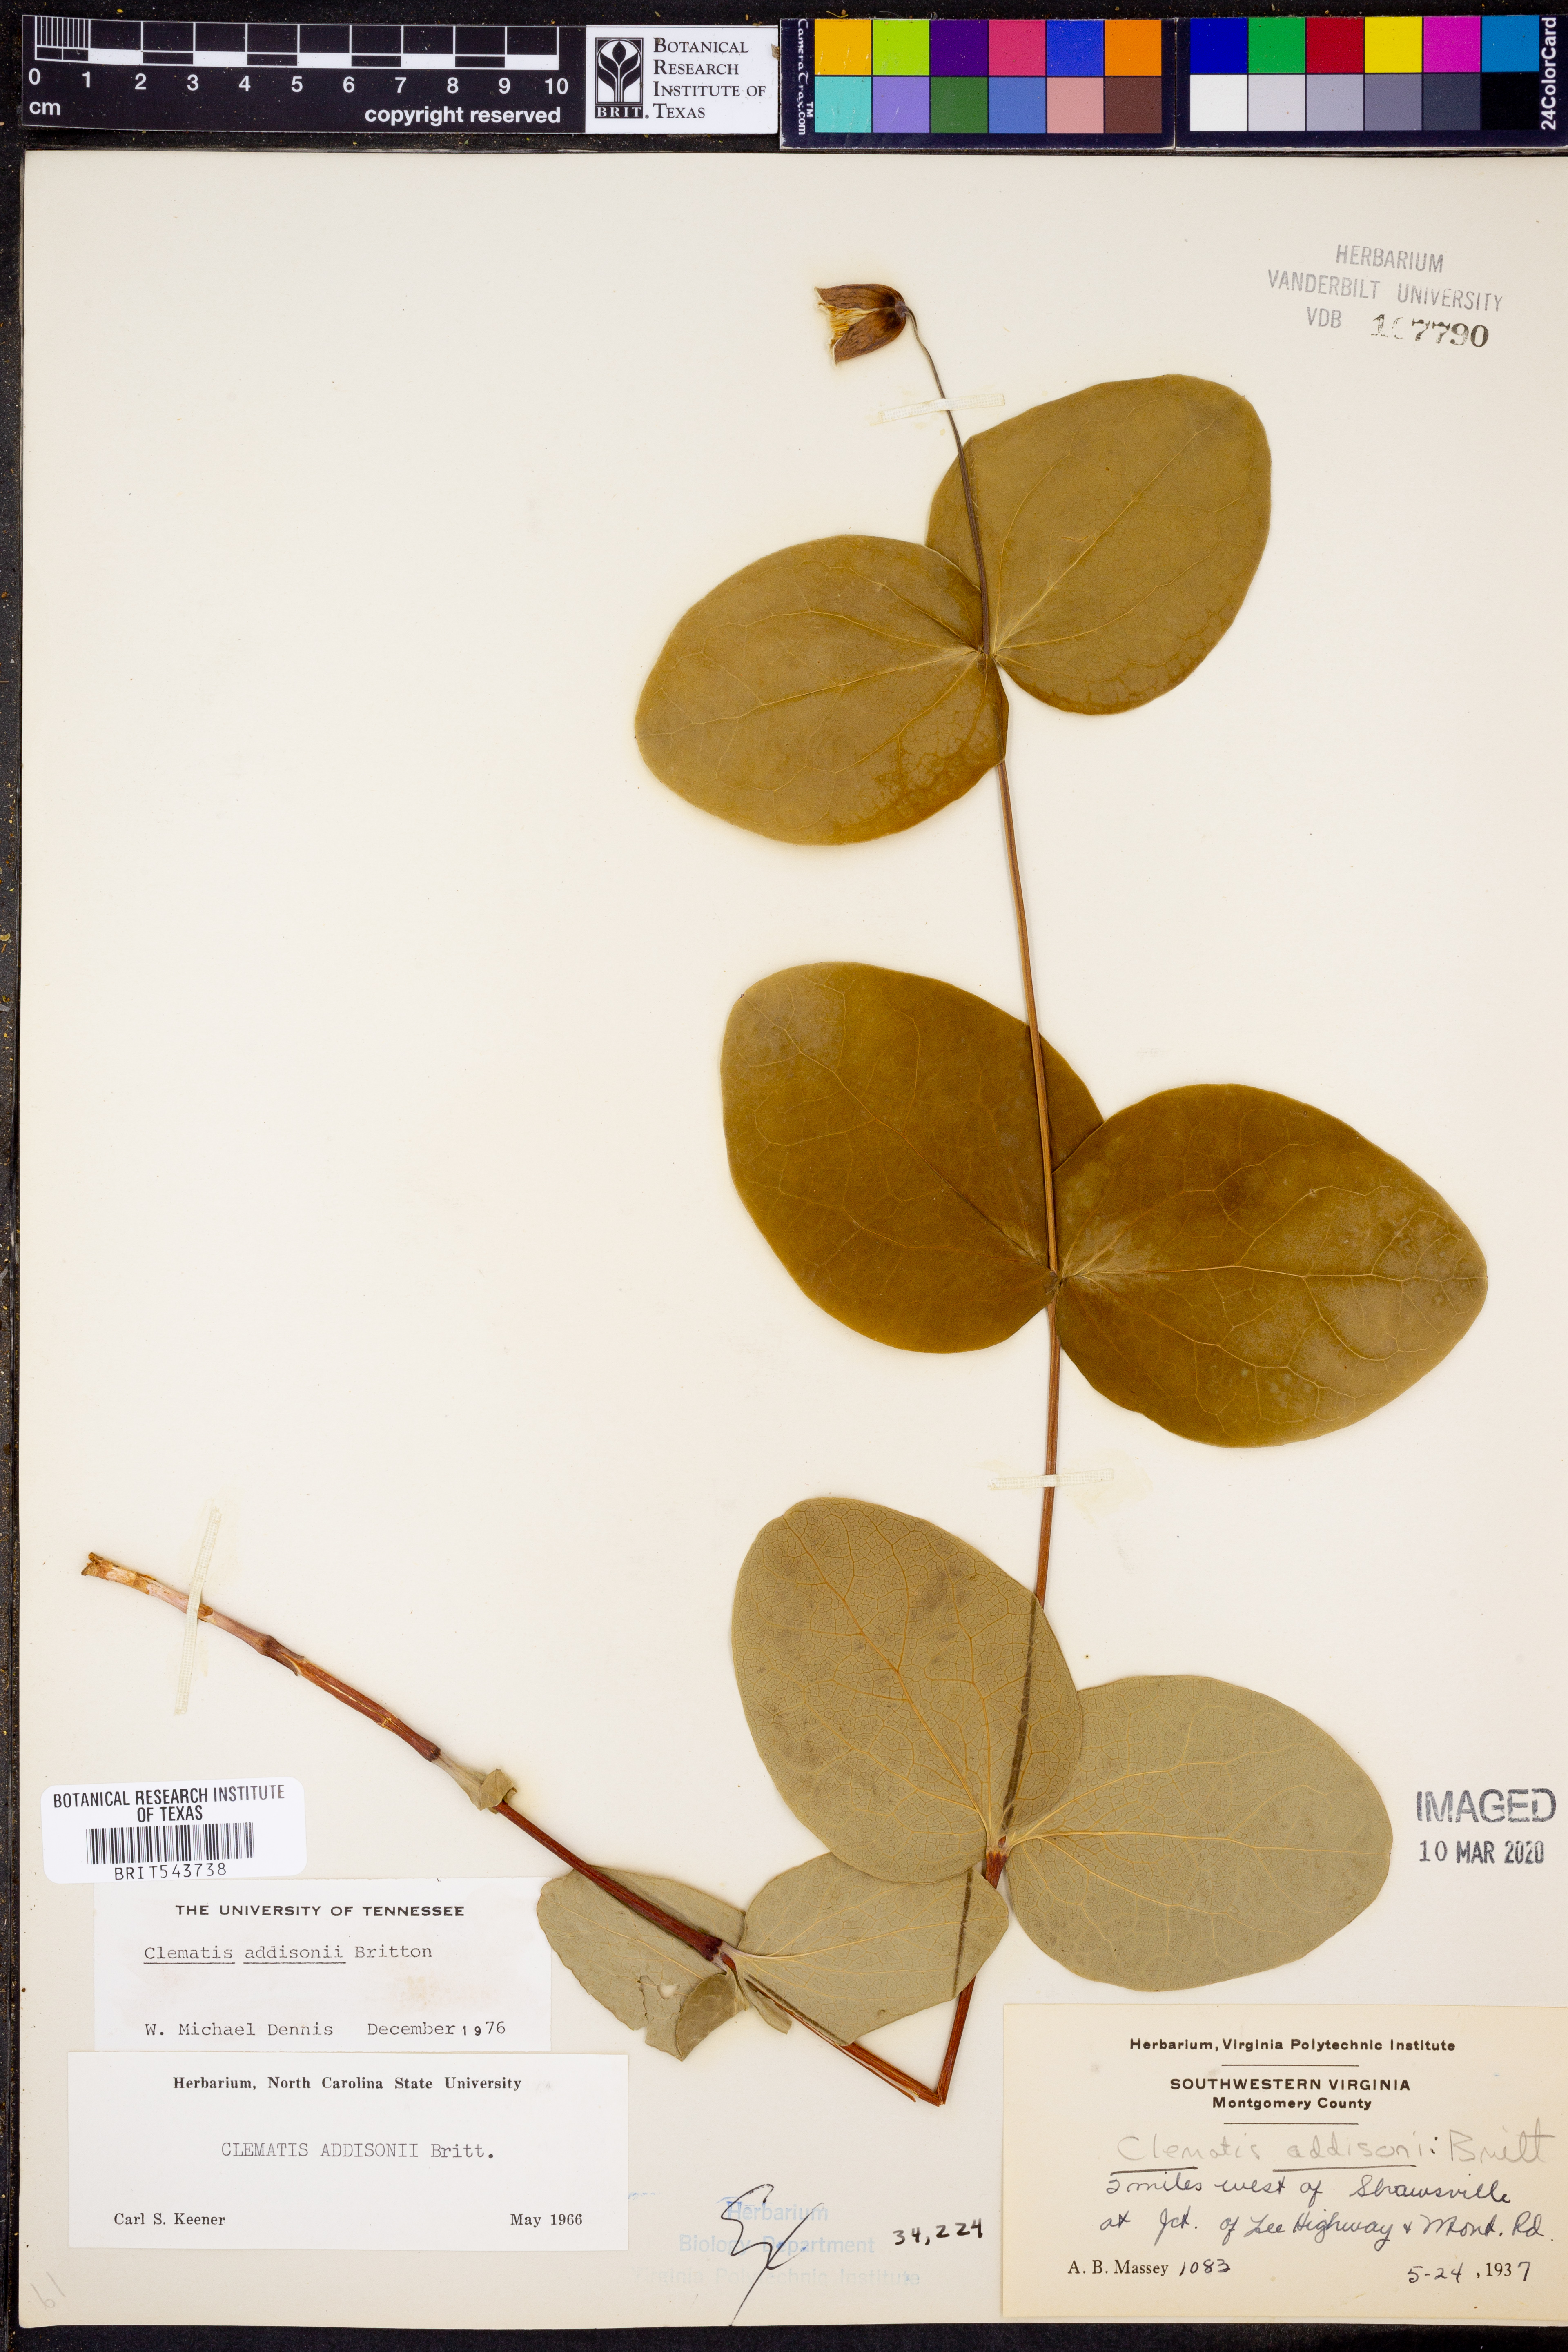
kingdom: Plantae
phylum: Tracheophyta
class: Magnoliopsida
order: Ranunculales
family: Ranunculaceae
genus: Clematis
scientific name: Clematis addisonii
